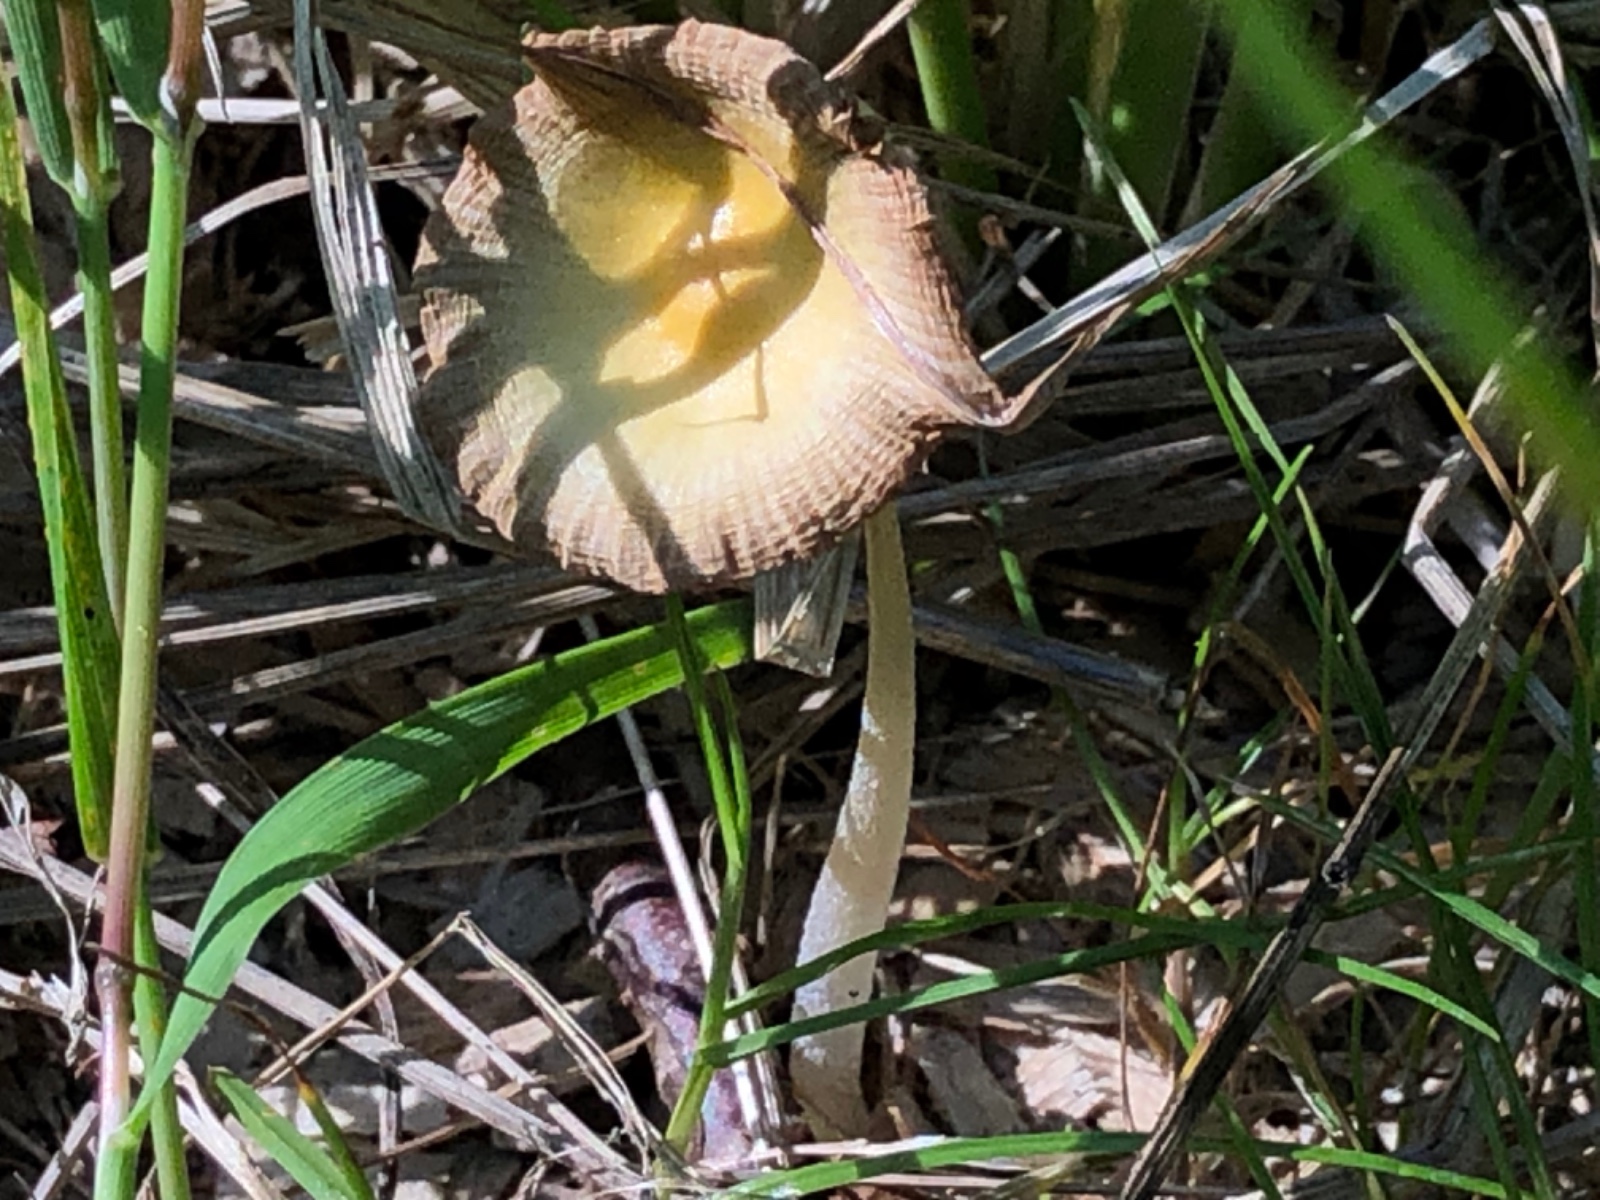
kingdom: Fungi
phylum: Basidiomycota
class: Agaricomycetes
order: Agaricales
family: Bolbitiaceae
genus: Bolbitius
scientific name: Bolbitius titubans
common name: almindelig gulhat
